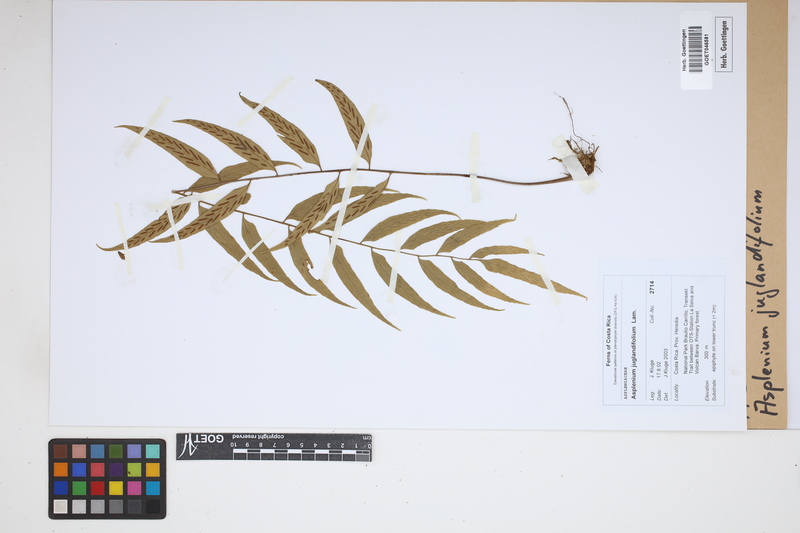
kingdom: Plantae
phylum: Tracheophyta
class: Polypodiopsida
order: Polypodiales
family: Aspleniaceae
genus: Asplenium
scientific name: Asplenium juglandifolium
